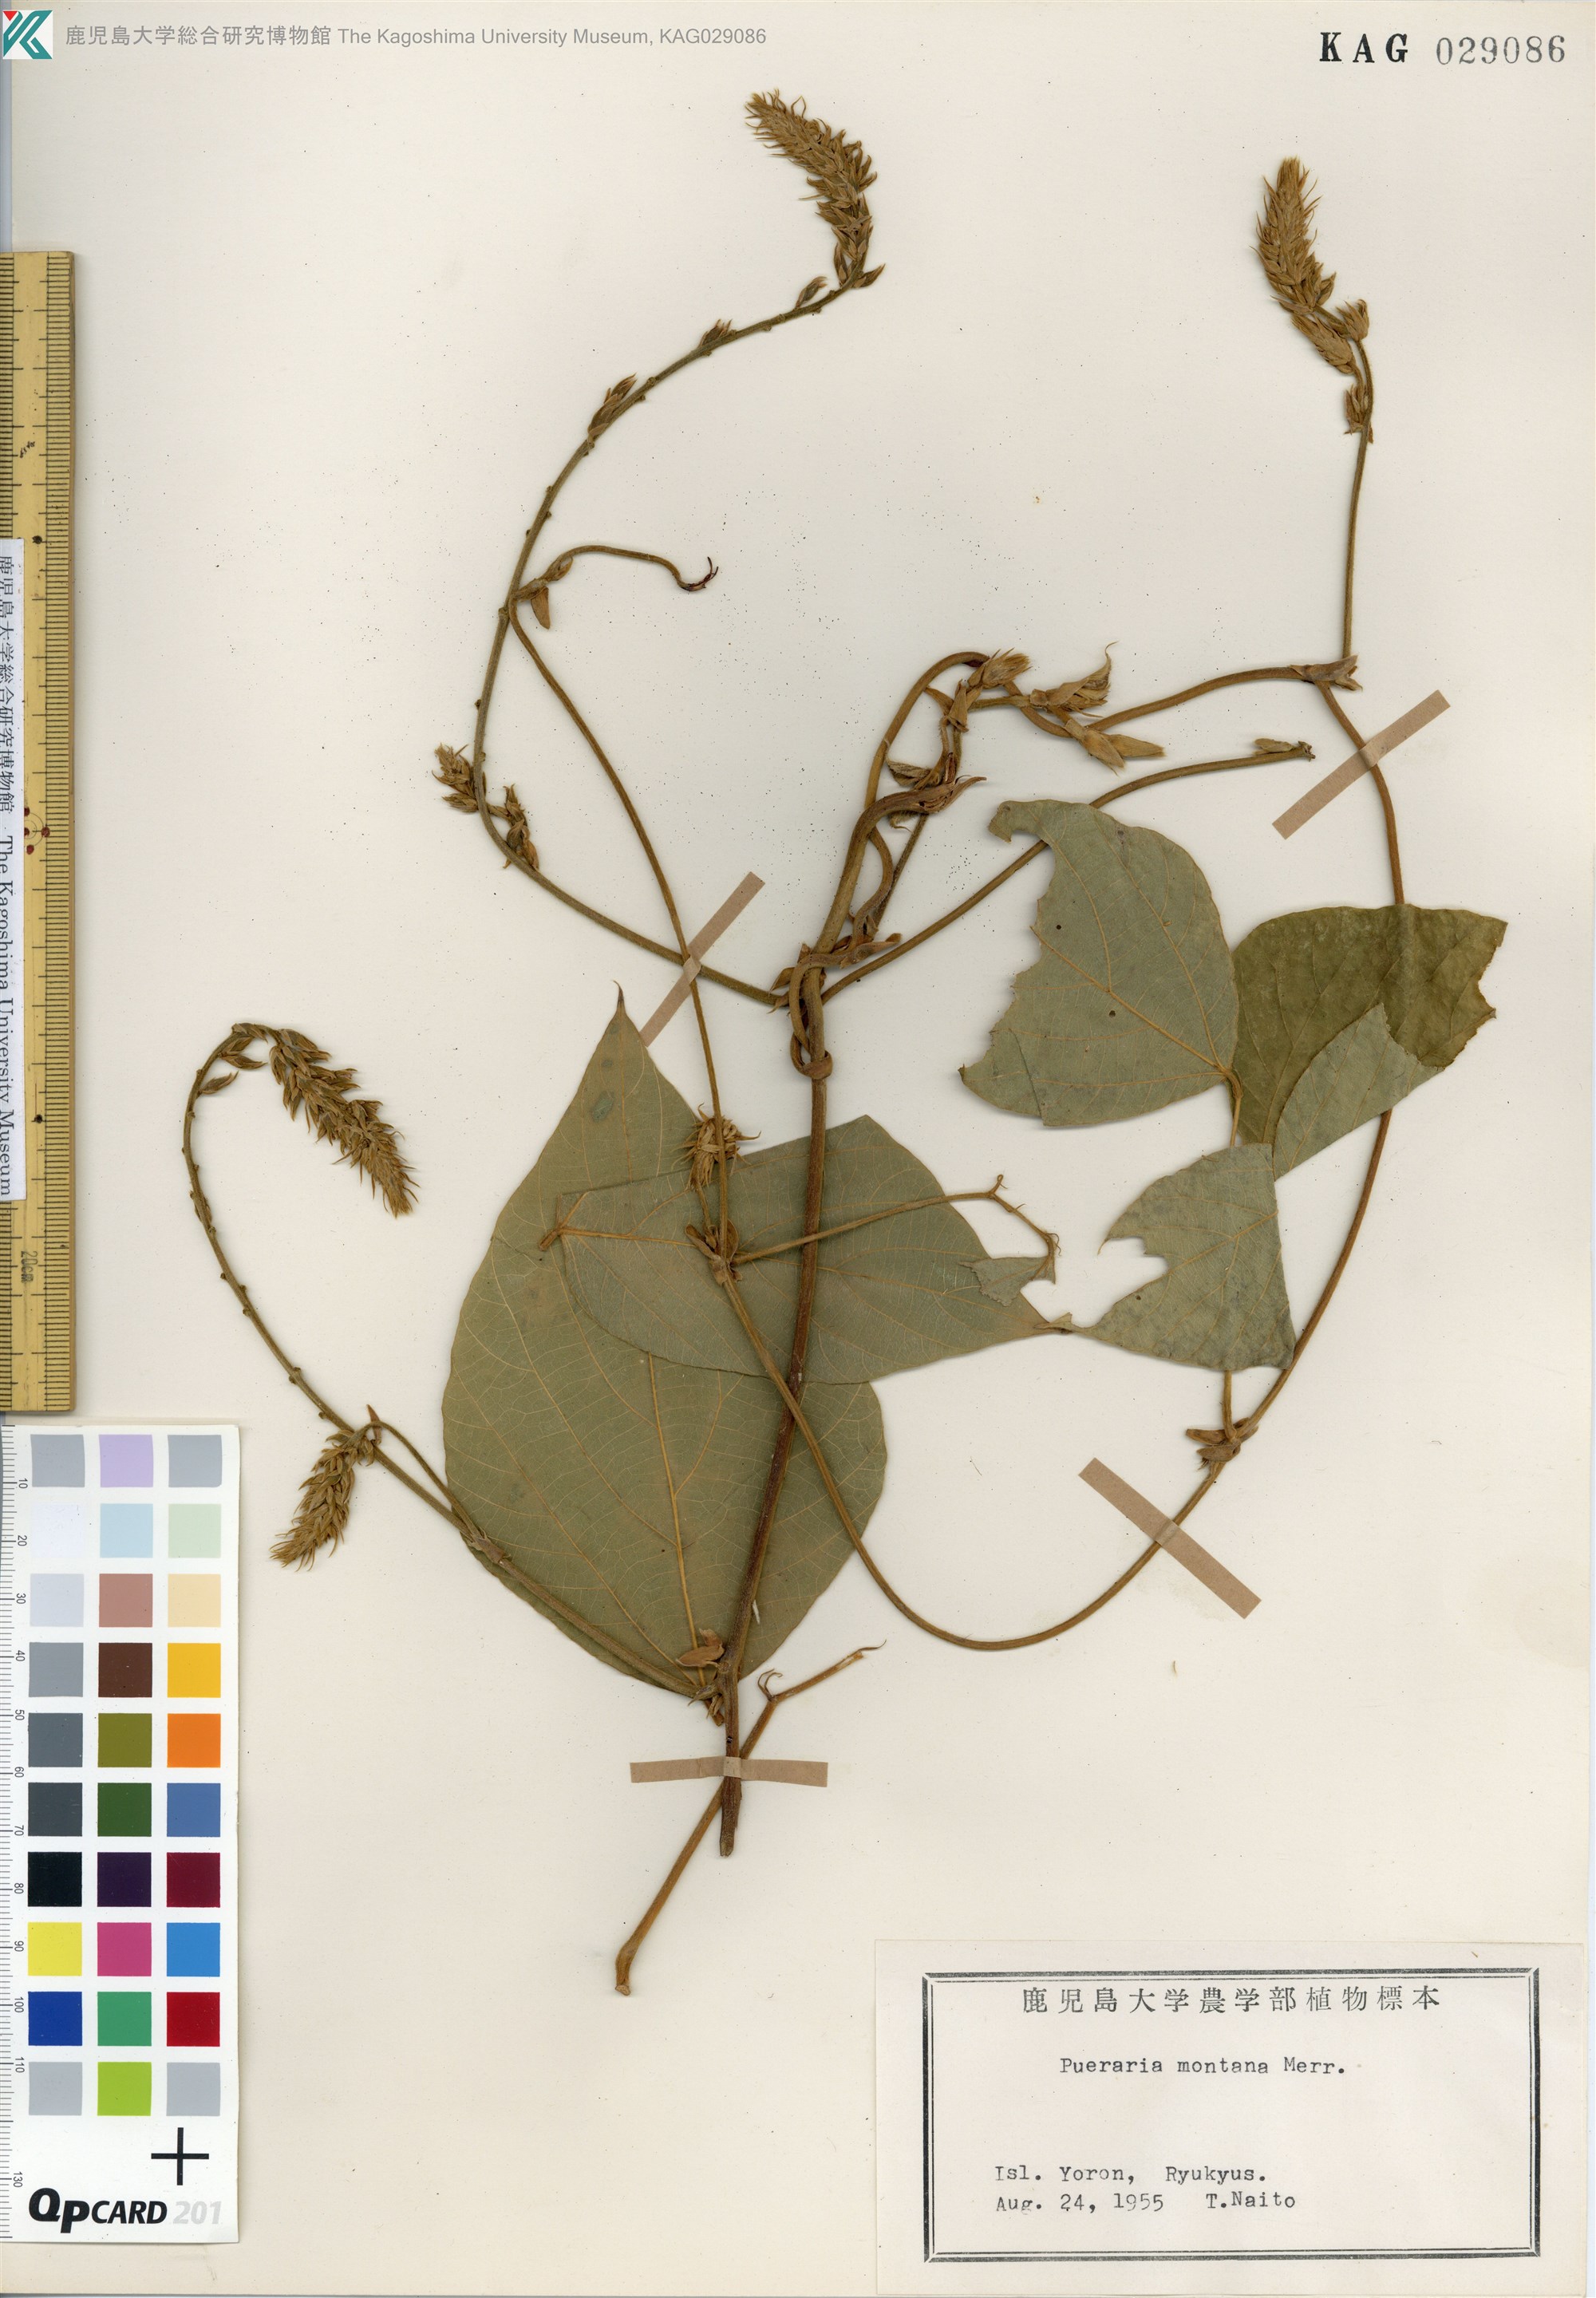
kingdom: Plantae
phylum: Tracheophyta
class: Magnoliopsida
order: Fabales
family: Fabaceae
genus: Pueraria
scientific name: Pueraria montana
